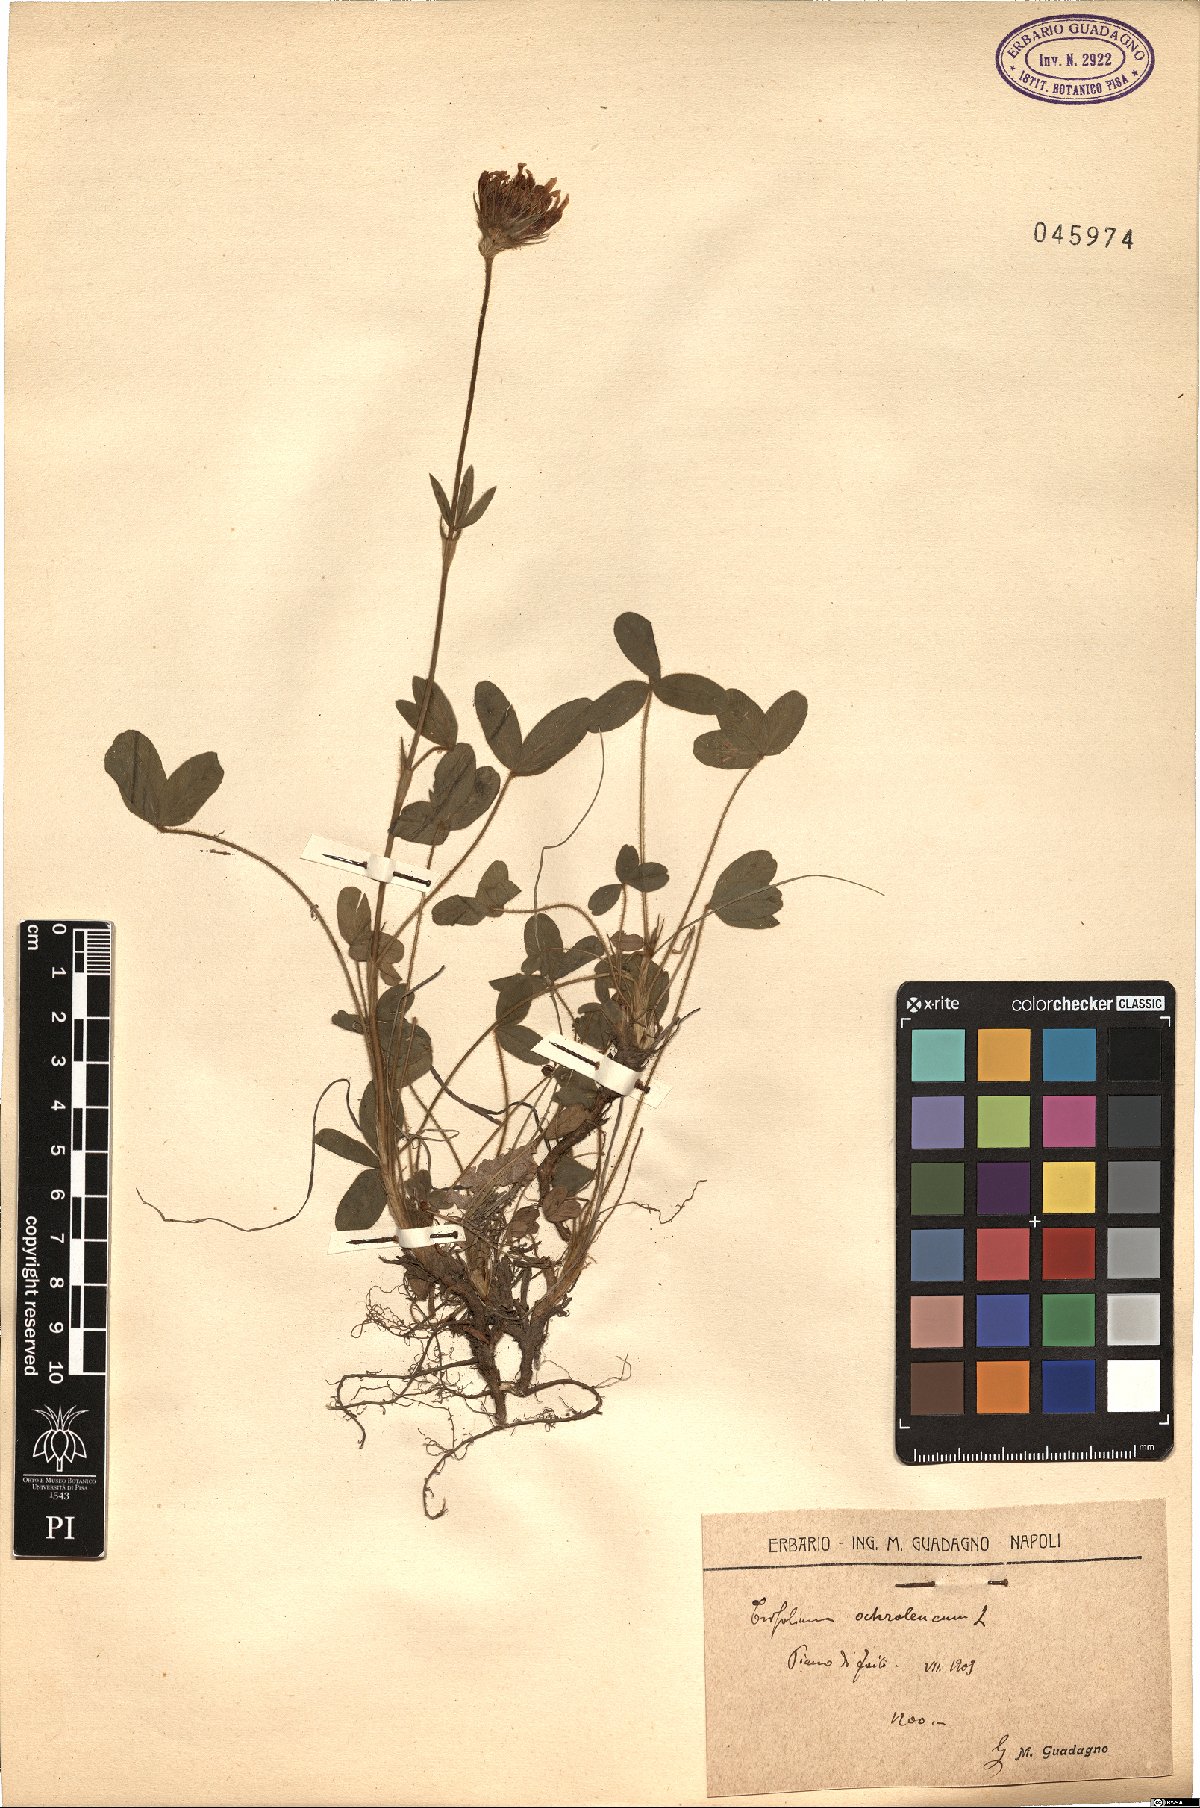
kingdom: Plantae
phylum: Tracheophyta
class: Magnoliopsida
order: Fabales
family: Fabaceae
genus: Trifolium
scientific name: Trifolium ochroleucon
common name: Sulphur clover
